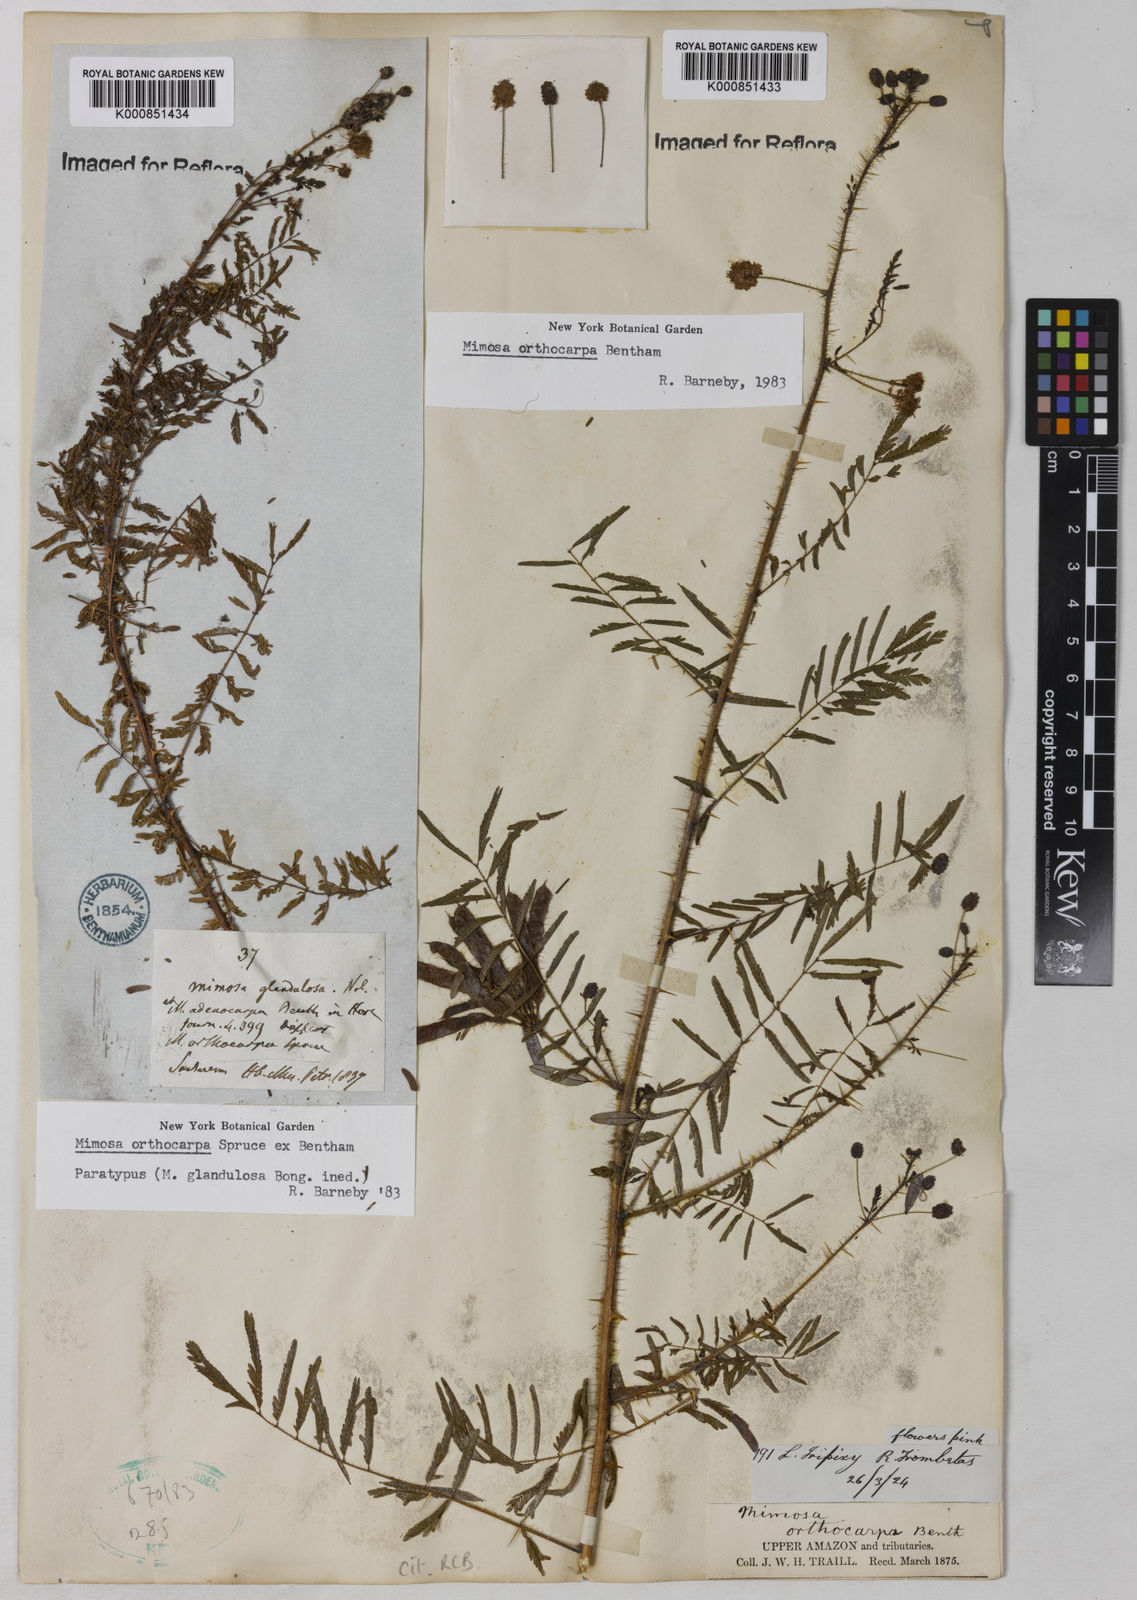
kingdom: Plantae
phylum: Tracheophyta
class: Magnoliopsida
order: Fabales
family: Fabaceae
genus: Mimosa
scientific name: Mimosa orthocarpa
